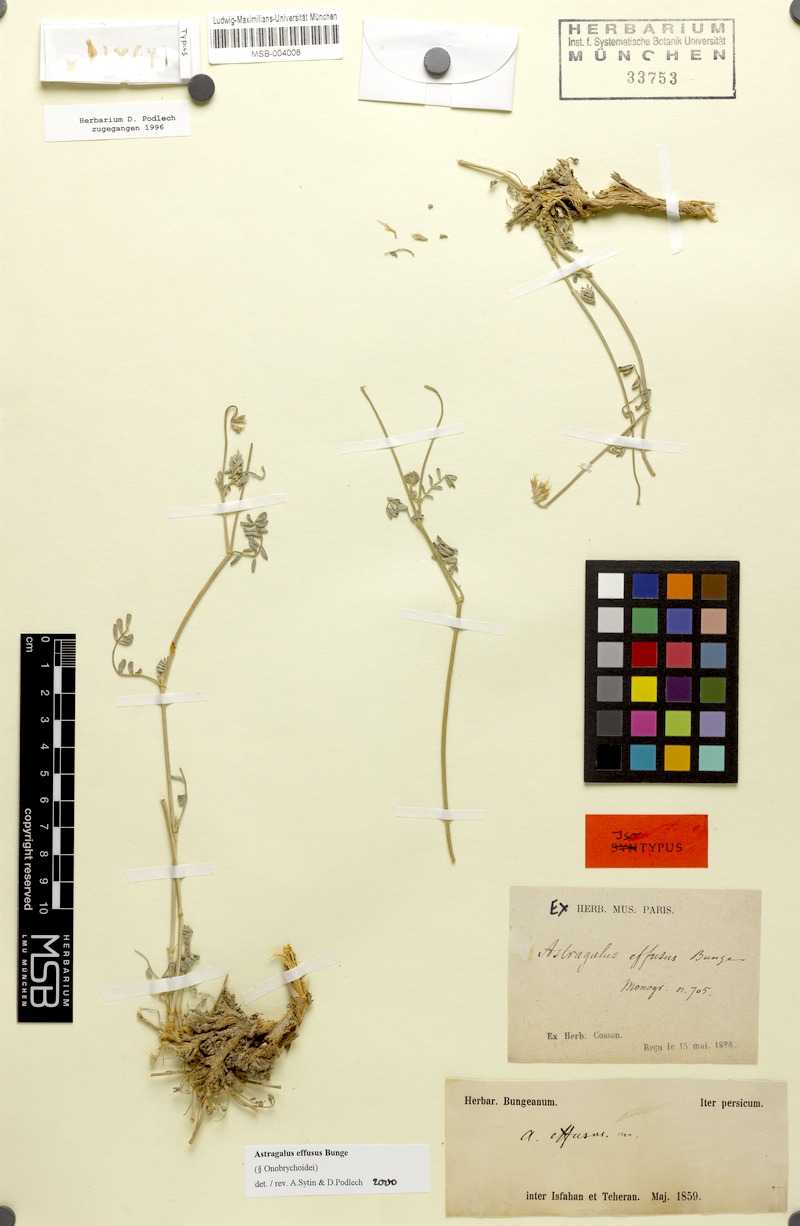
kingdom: Plantae
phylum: Tracheophyta
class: Magnoliopsida
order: Fabales
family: Fabaceae
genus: Astragalus
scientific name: Astragalus effusus
